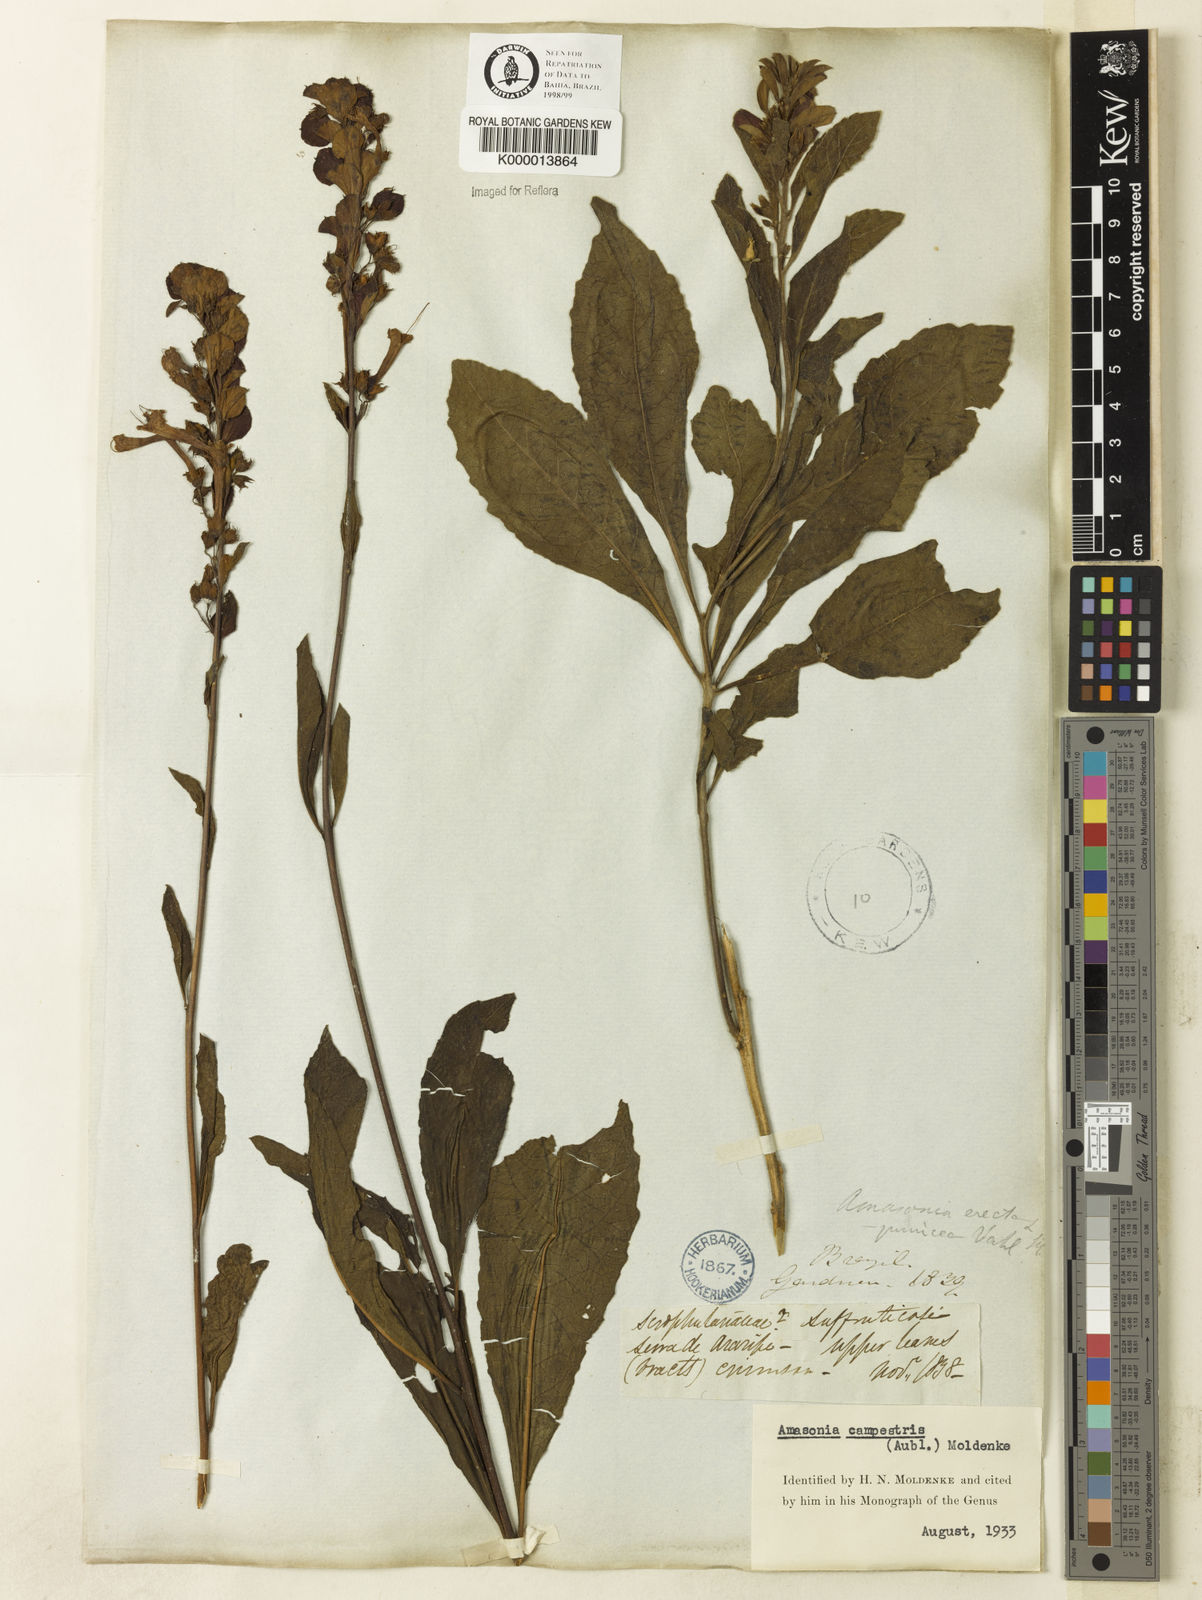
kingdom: Plantae
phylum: Tracheophyta
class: Magnoliopsida
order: Lamiales
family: Lamiaceae
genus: Amasonia
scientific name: Amasonia campestris
